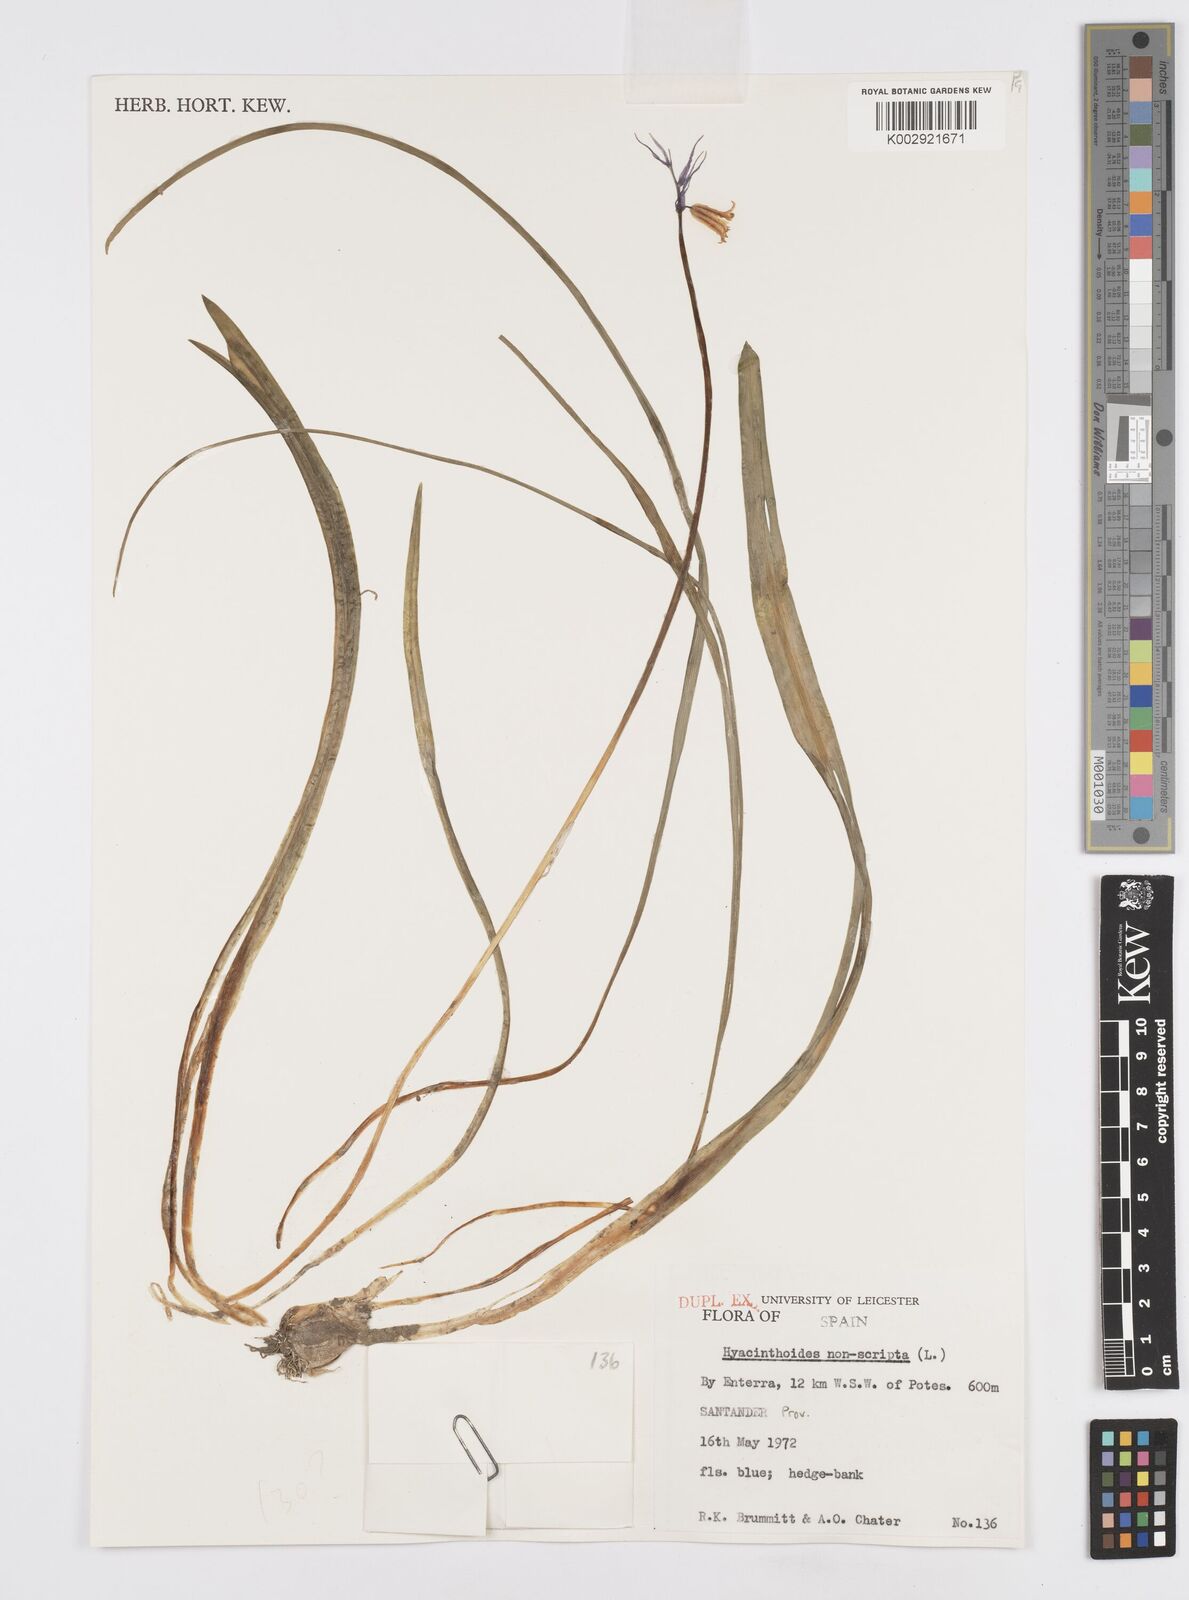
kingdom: Plantae
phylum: Tracheophyta
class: Liliopsida
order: Asparagales
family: Asparagaceae
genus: Hyacinthoides
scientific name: Hyacinthoides non-scripta
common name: Bluebell
